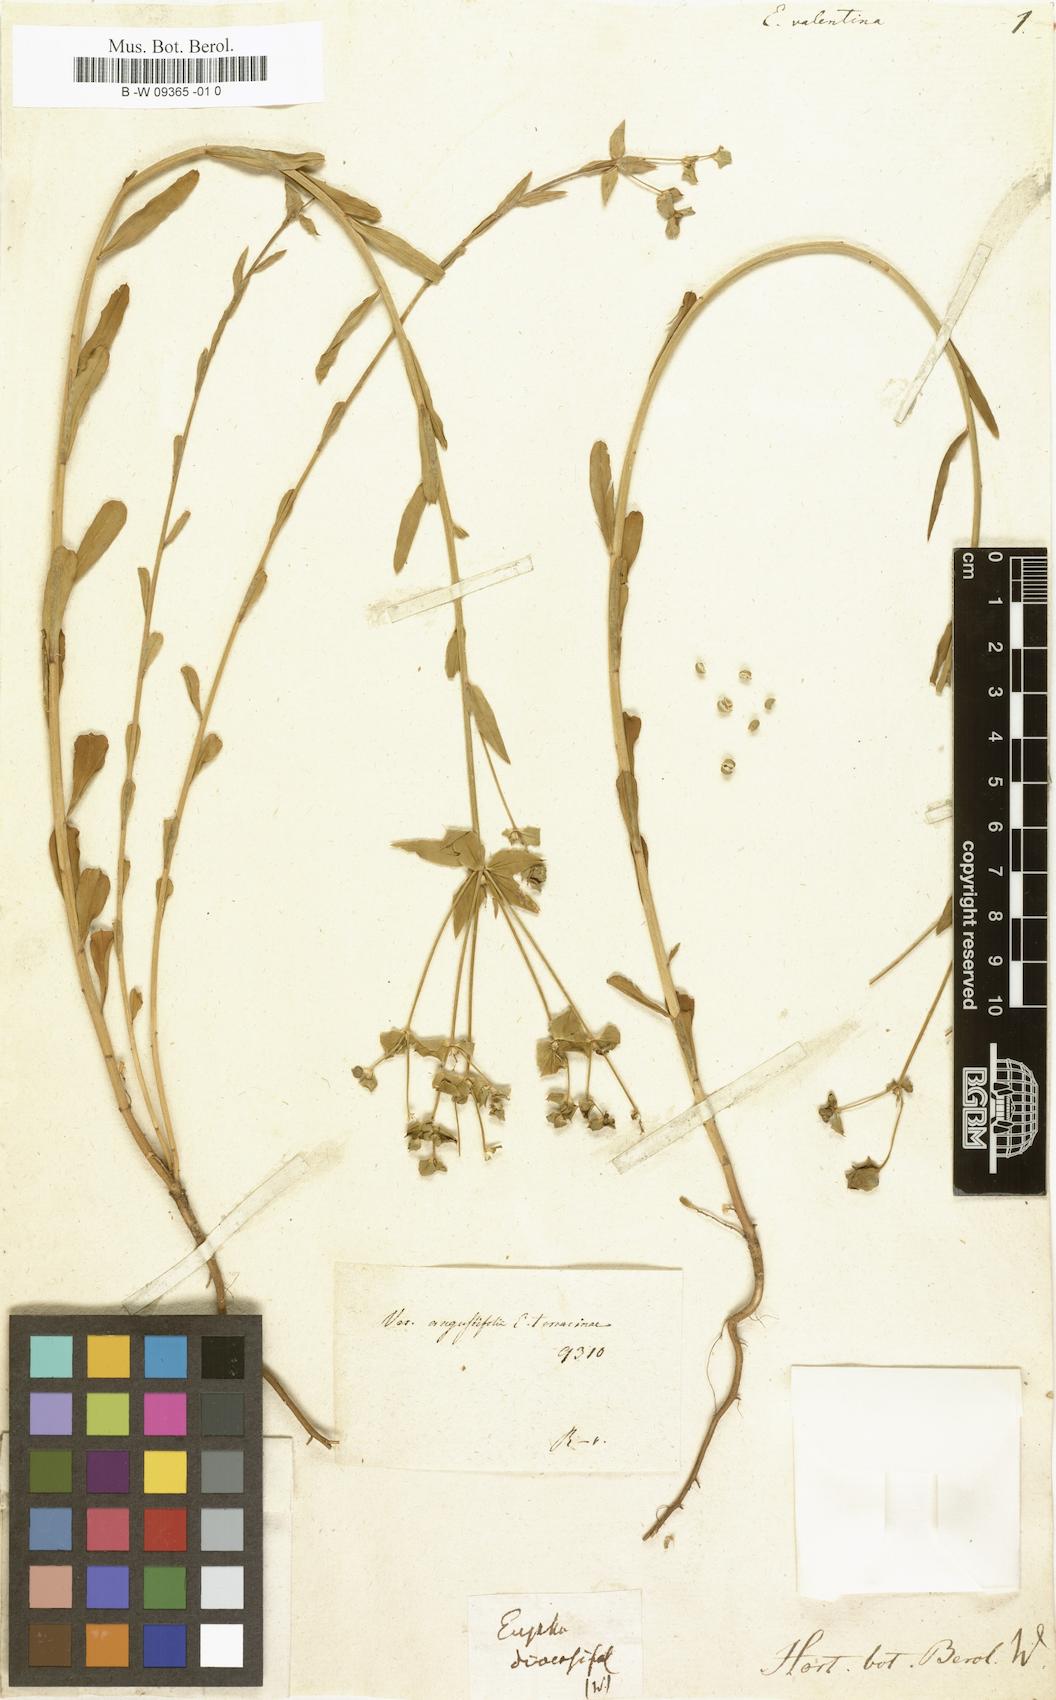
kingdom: Plantae
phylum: Tracheophyta
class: Magnoliopsida
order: Malpighiales
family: Euphorbiaceae
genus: Euphorbia
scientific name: Euphorbia terracina
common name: Geraldton carnation weed
